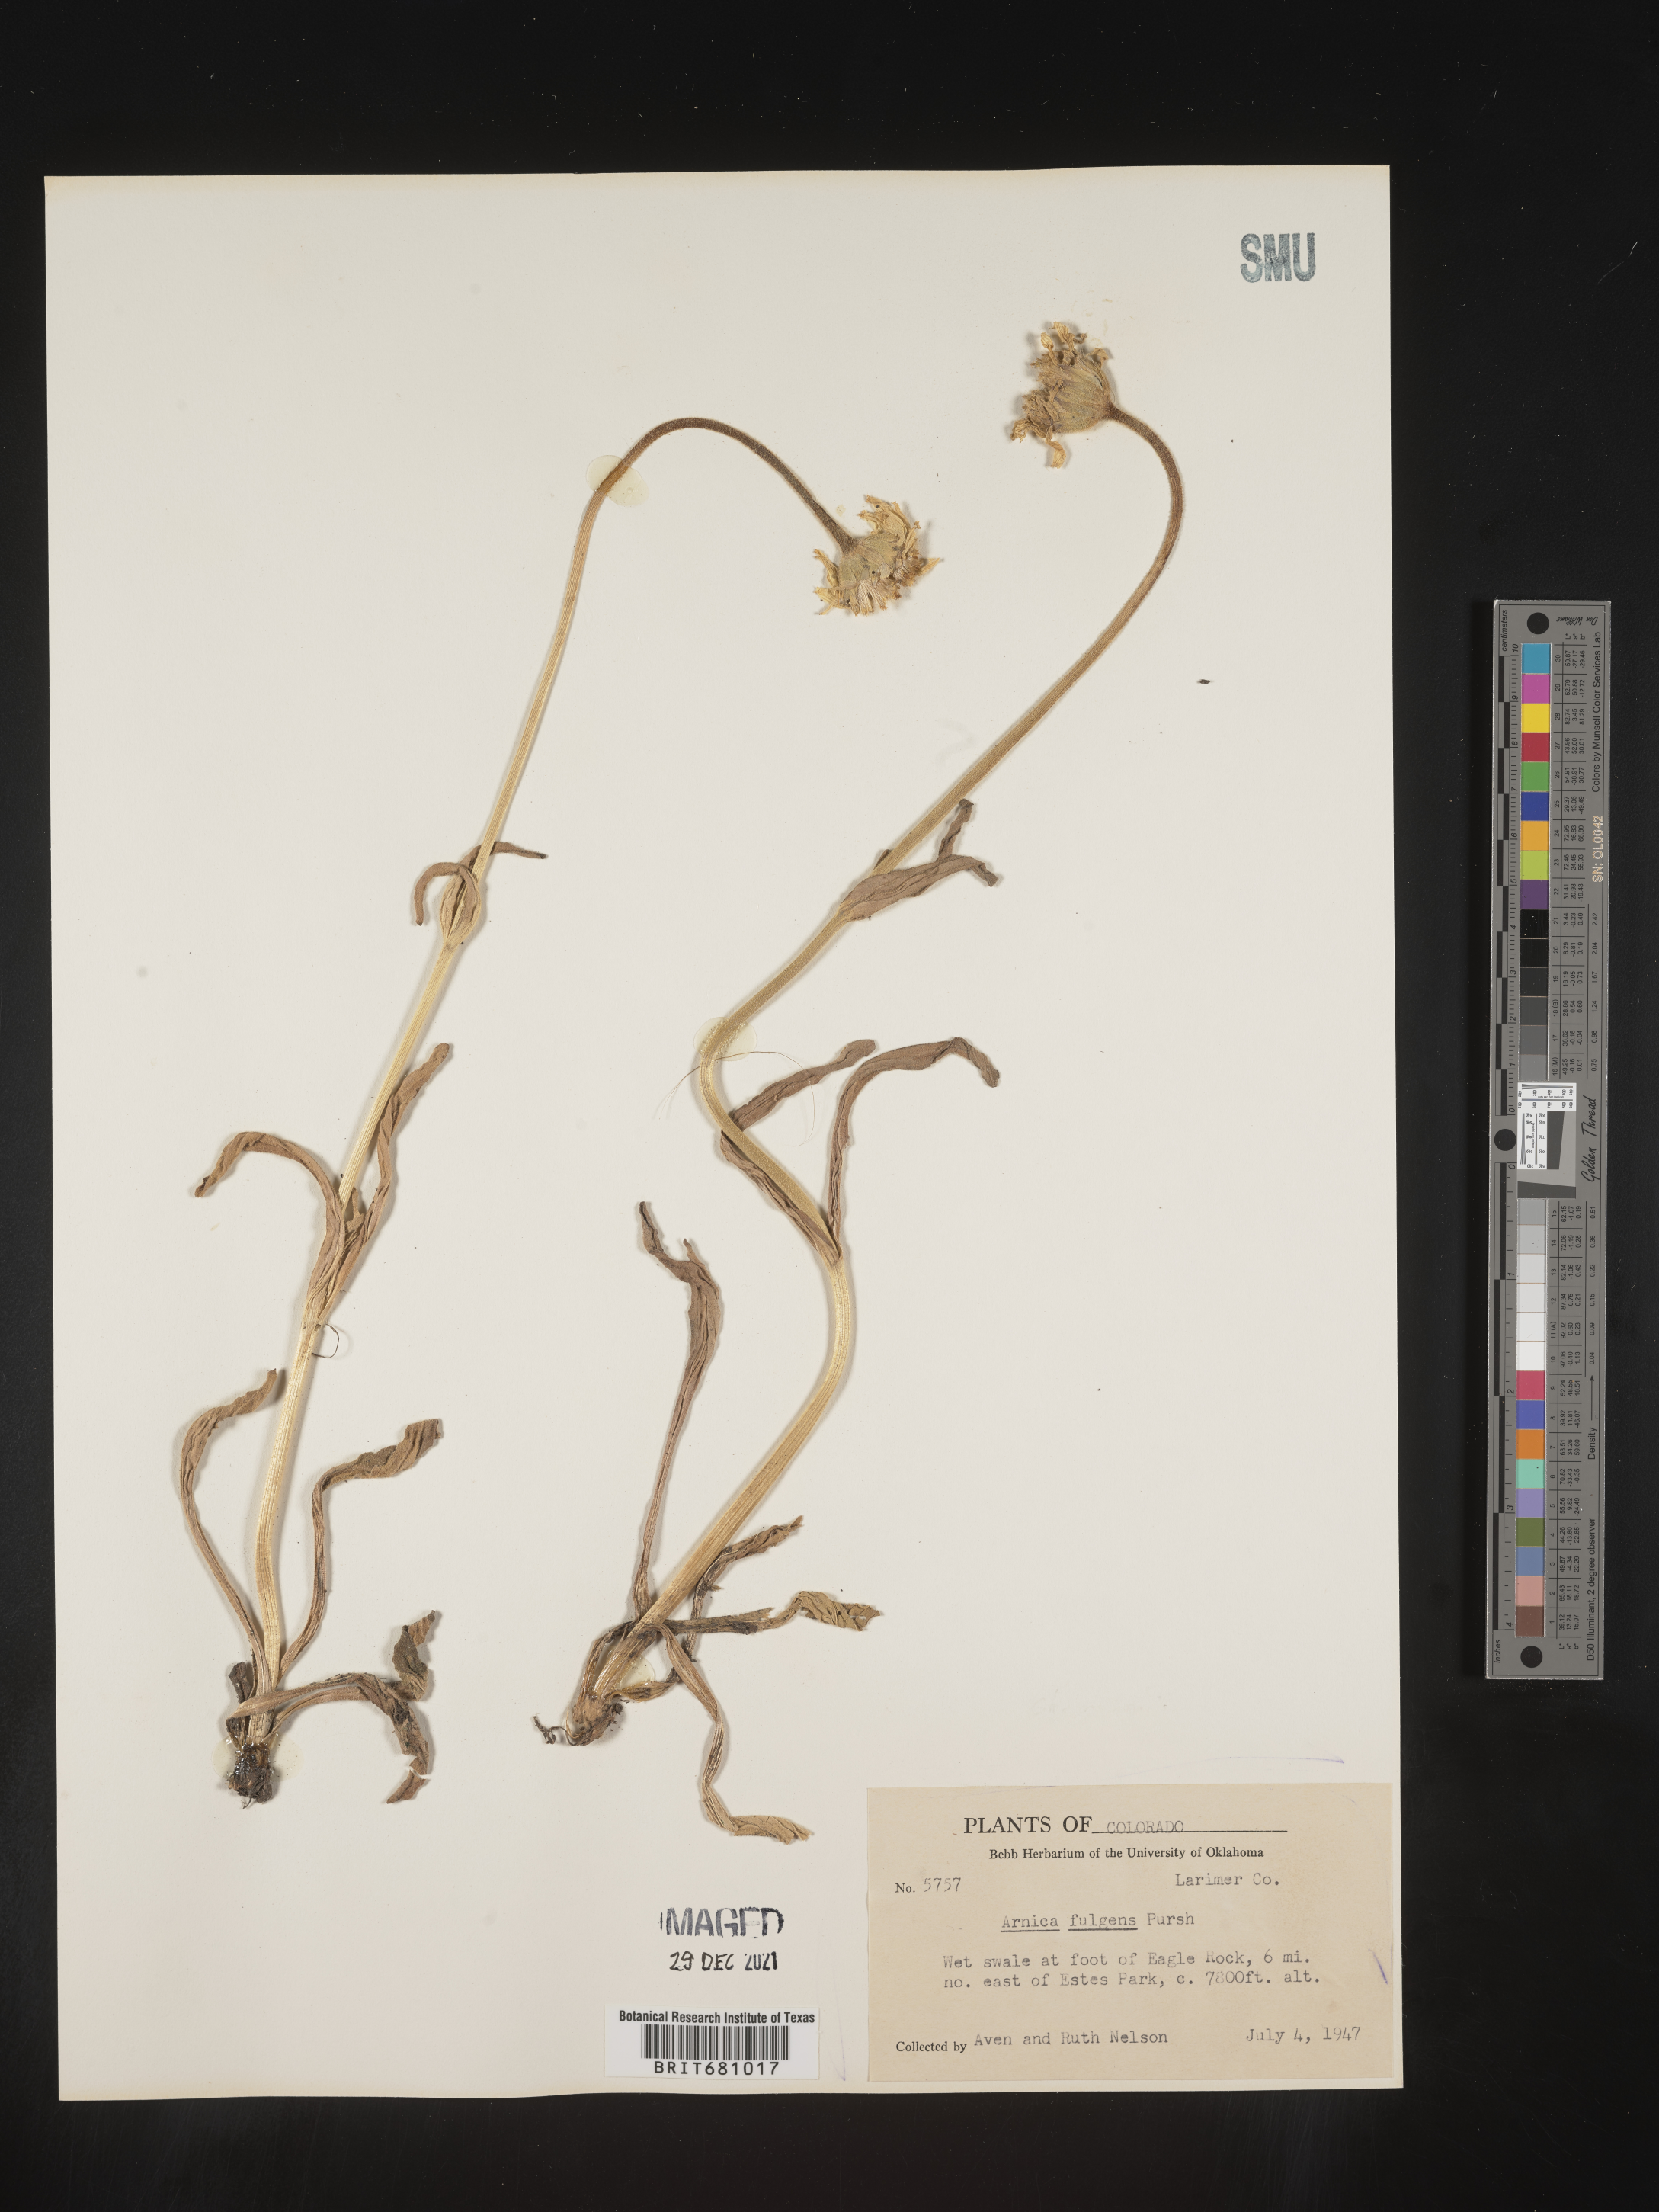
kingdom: Plantae
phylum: Tracheophyta
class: Magnoliopsida
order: Asterales
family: Asteraceae
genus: Arnica
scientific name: Arnica fulgens
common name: Foothill arnica
